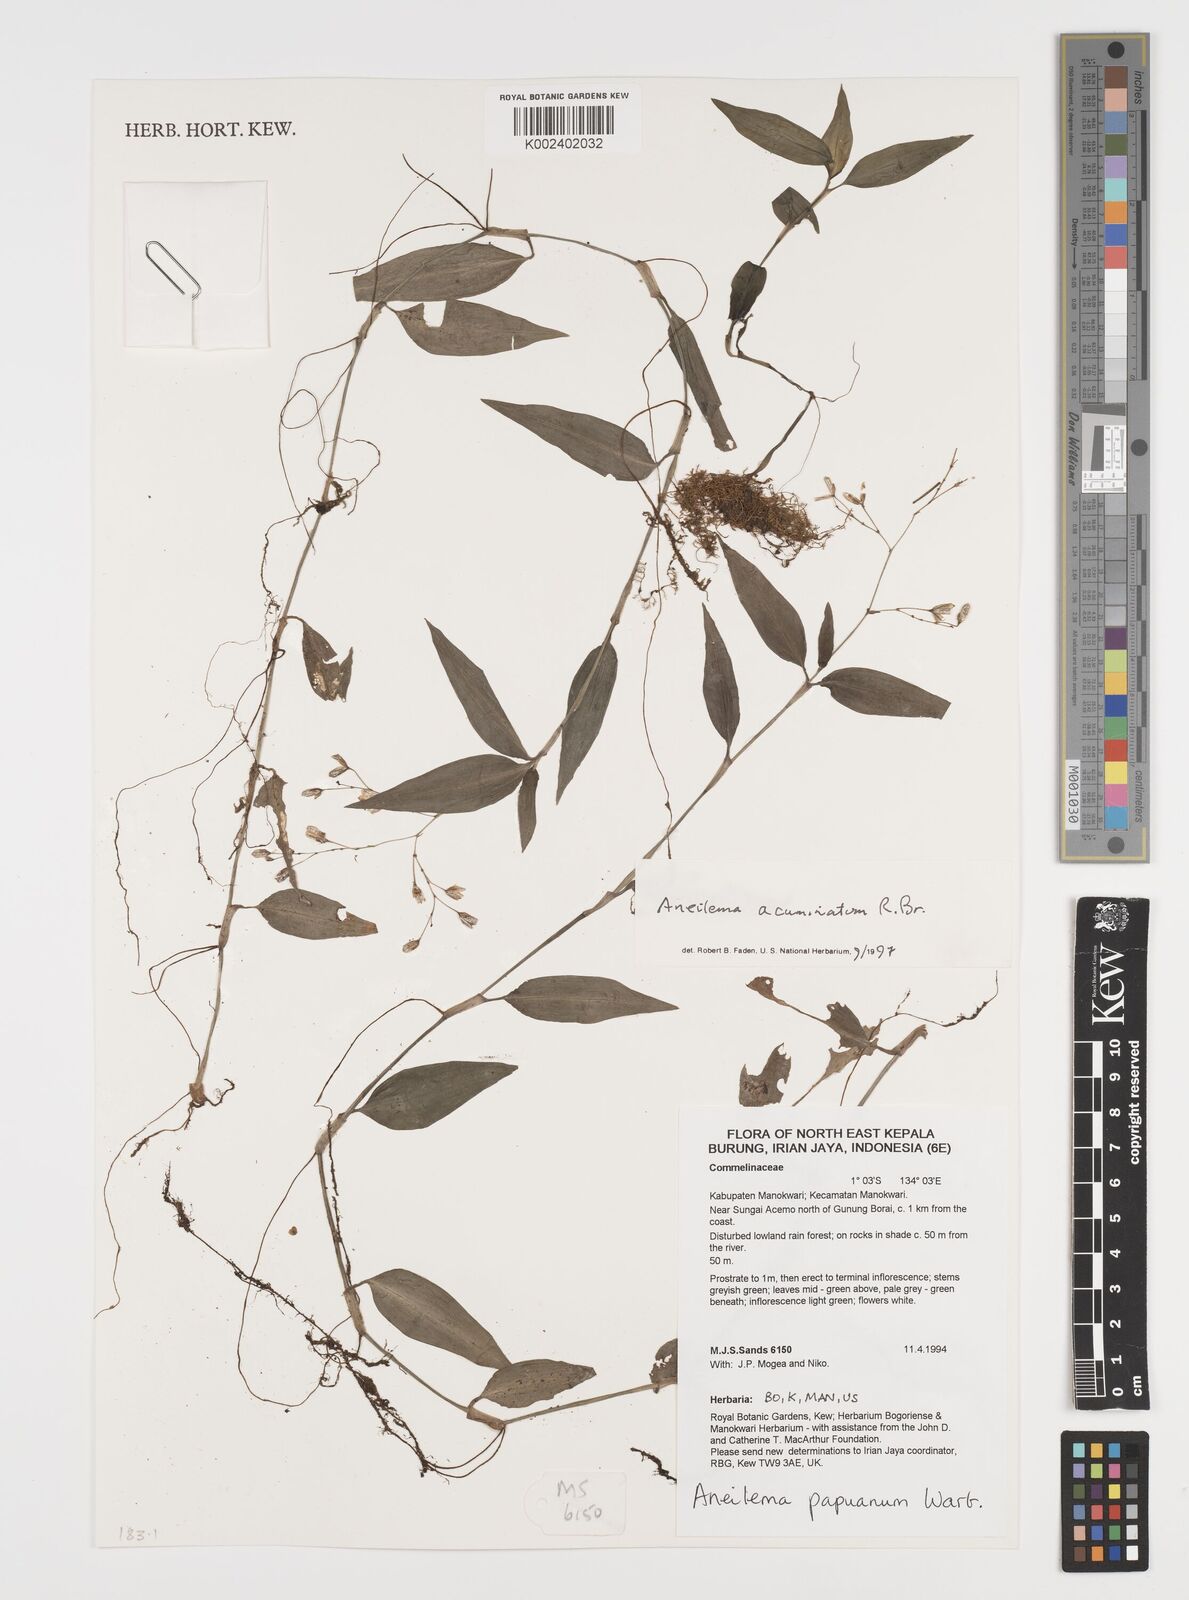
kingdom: Plantae
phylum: Tracheophyta
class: Liliopsida
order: Commelinales
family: Commelinaceae
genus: Aneilema
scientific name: Aneilema acuminatum
